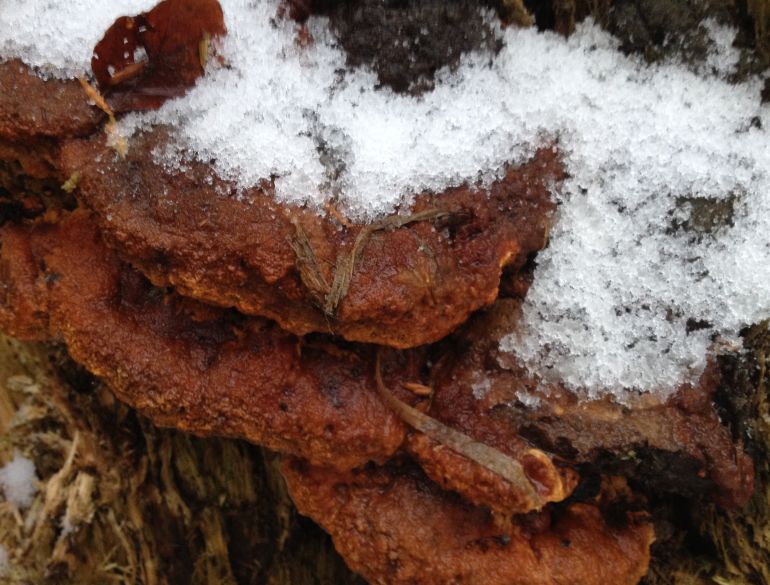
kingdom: Fungi
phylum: Basidiomycota
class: Agaricomycetes
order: Gloeophyllales
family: Gloeophyllaceae
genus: Gloeophyllum
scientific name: Gloeophyllum odoratum
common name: duftende korkhat
